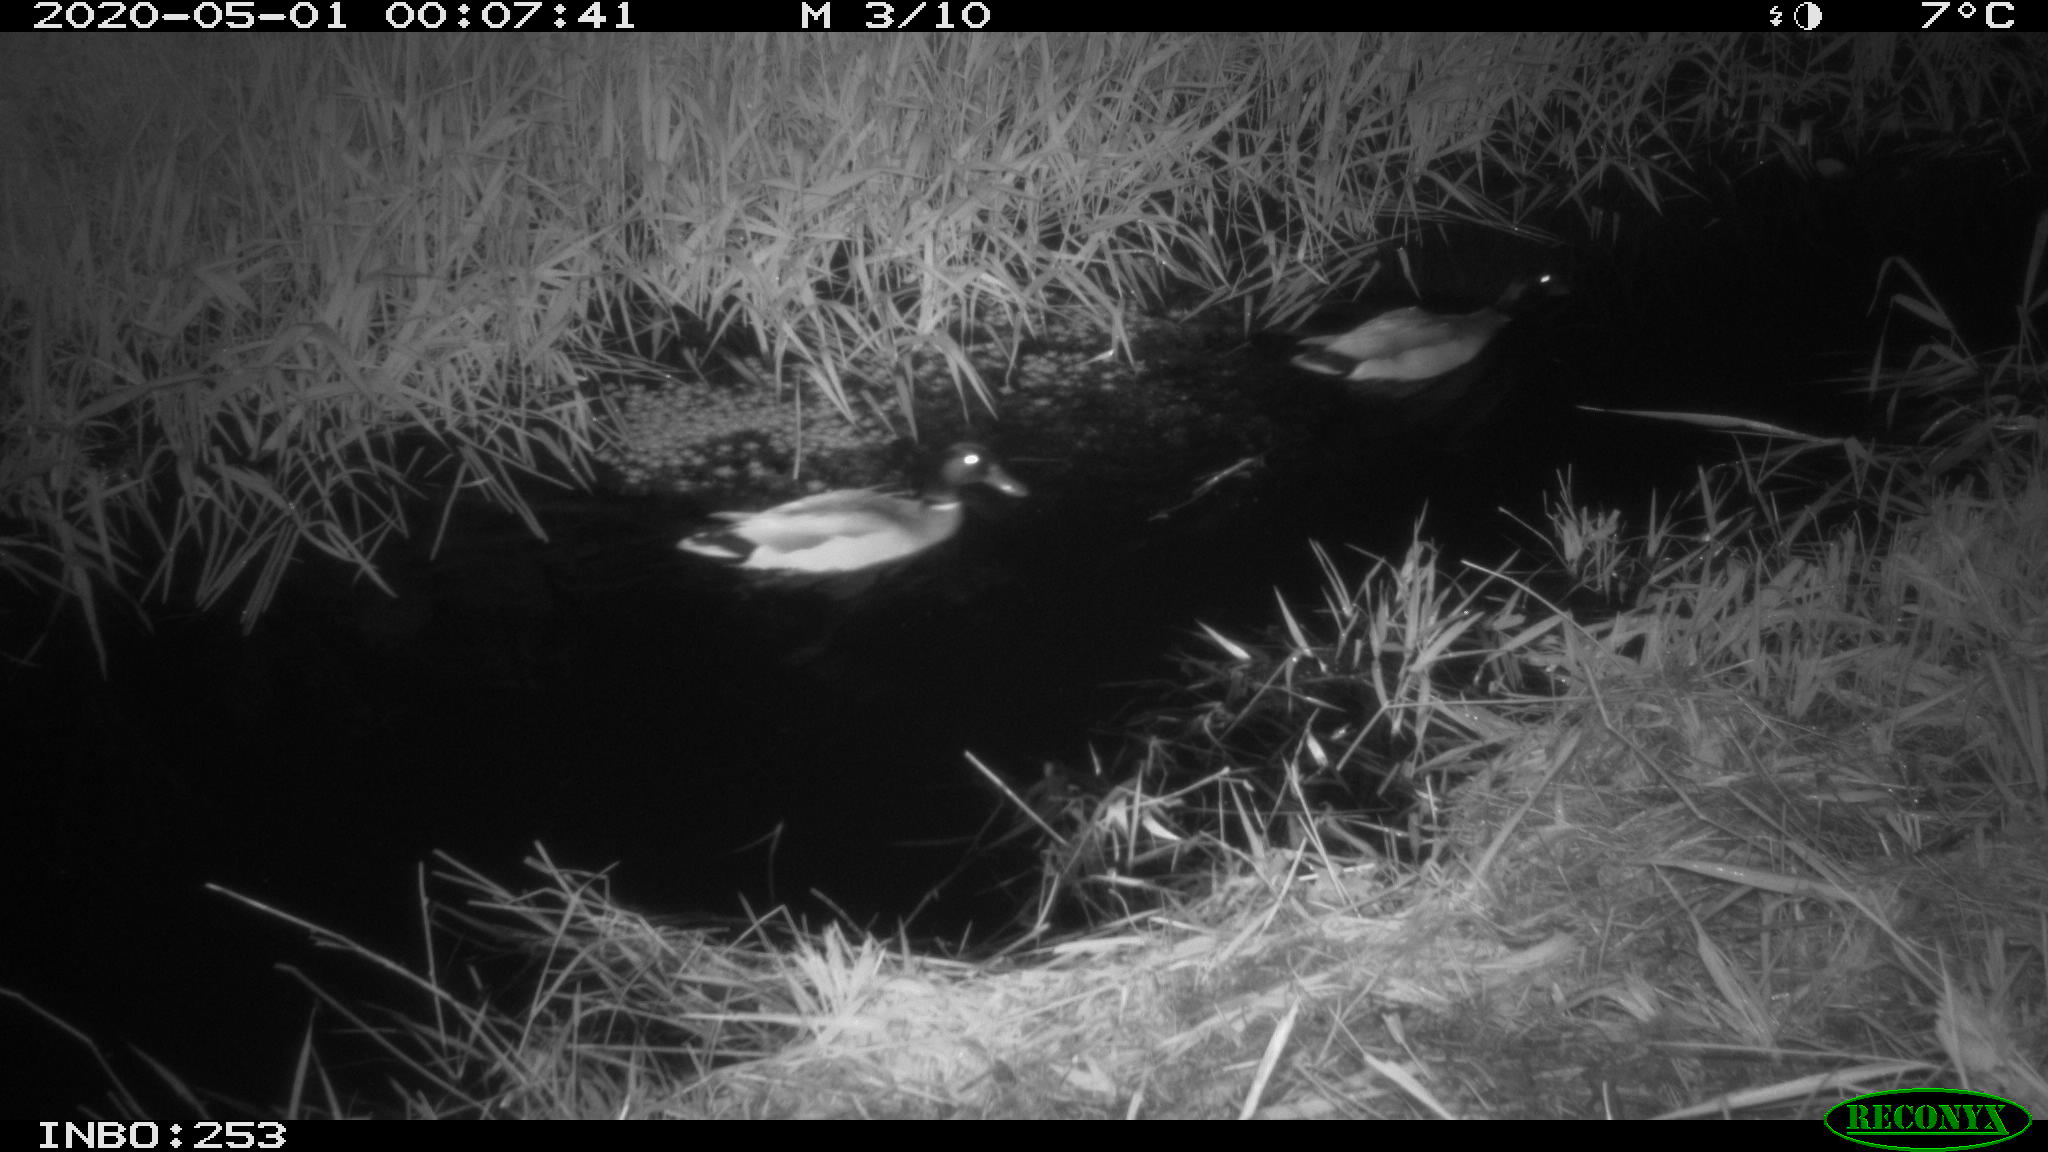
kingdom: Animalia
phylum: Chordata
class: Aves
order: Anseriformes
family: Anatidae
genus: Anas
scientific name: Anas platyrhynchos
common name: Mallard
